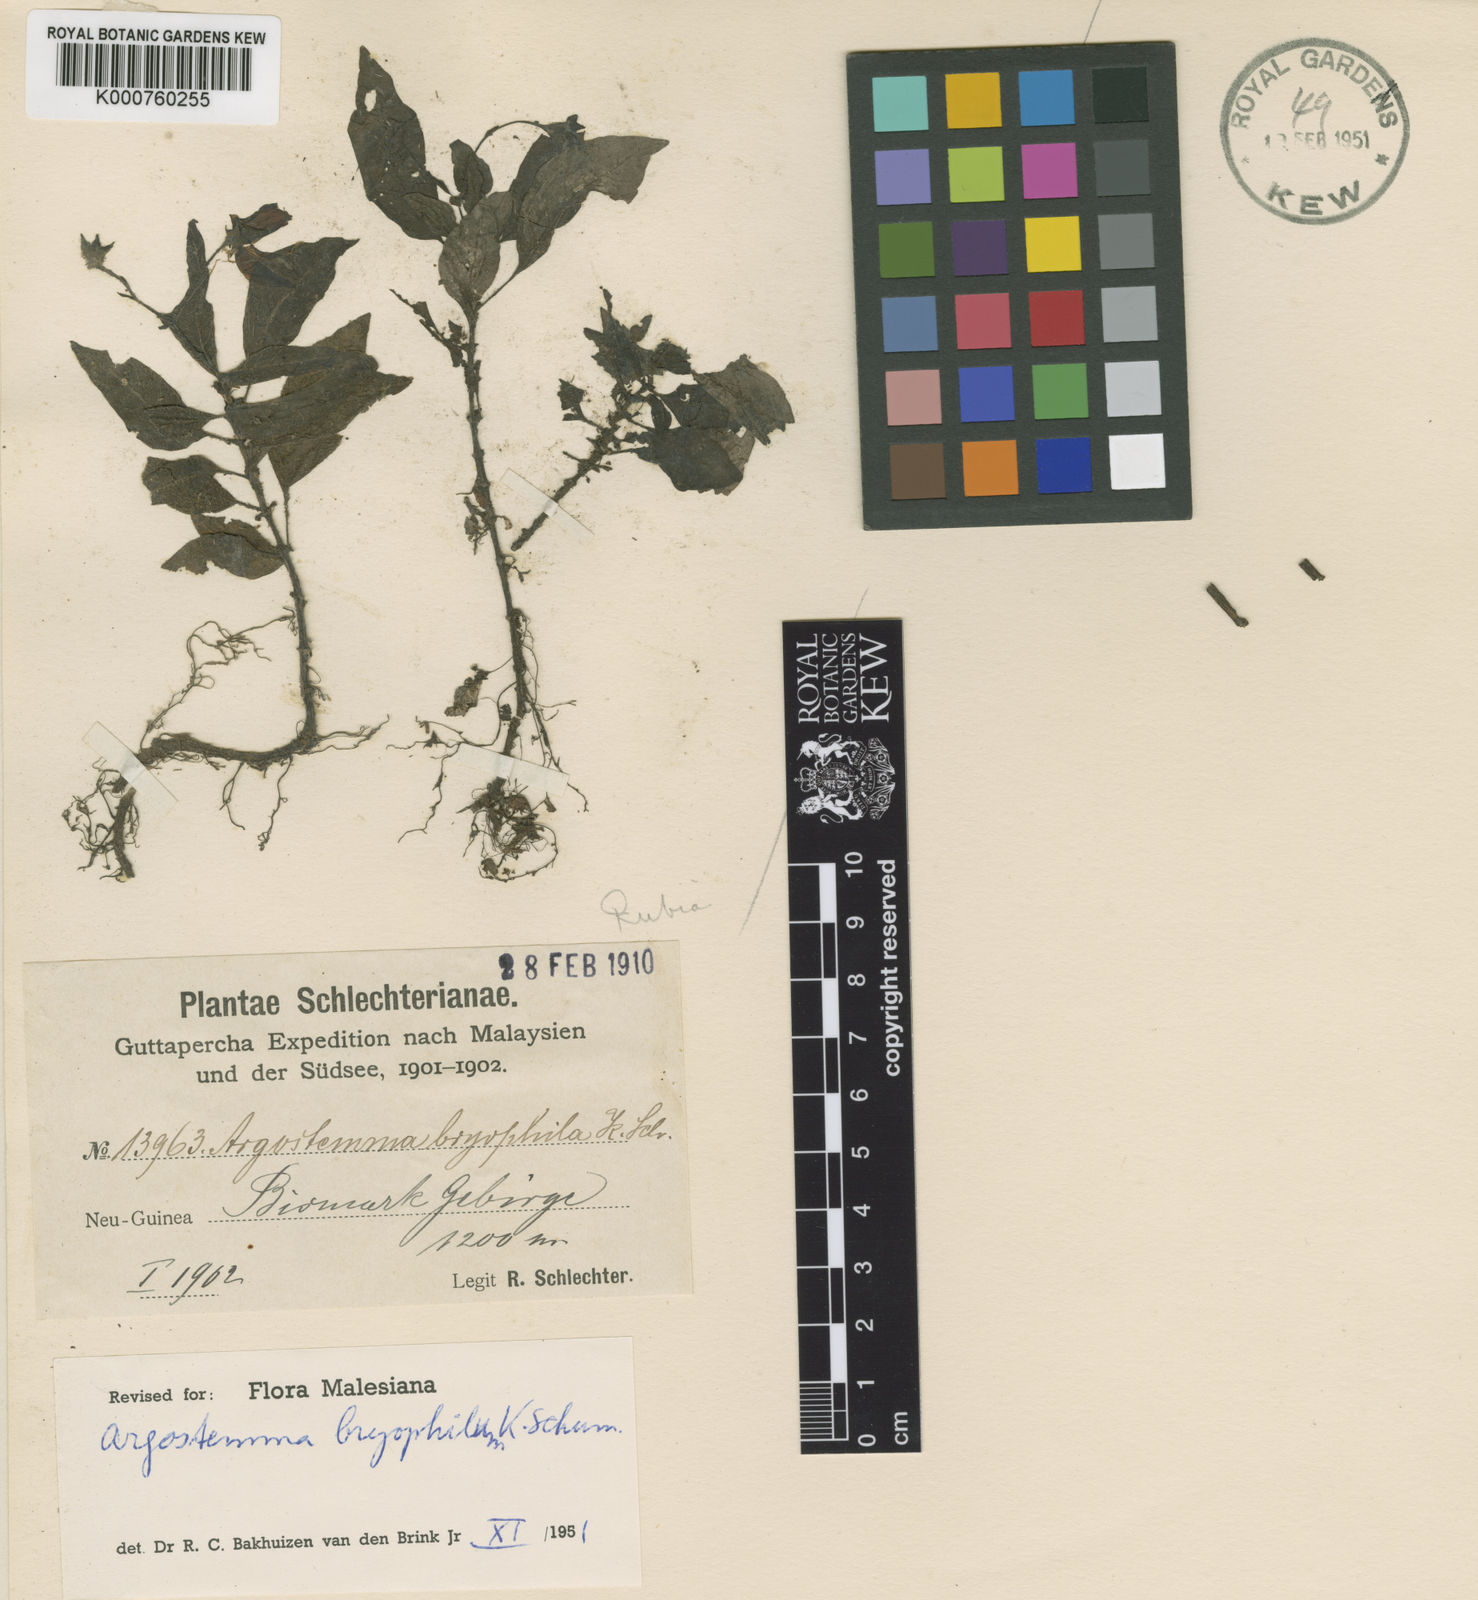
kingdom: Plantae
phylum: Tracheophyta
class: Magnoliopsida
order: Gentianales
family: Rubiaceae
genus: Argostemma
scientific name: Argostemma bryophilum
